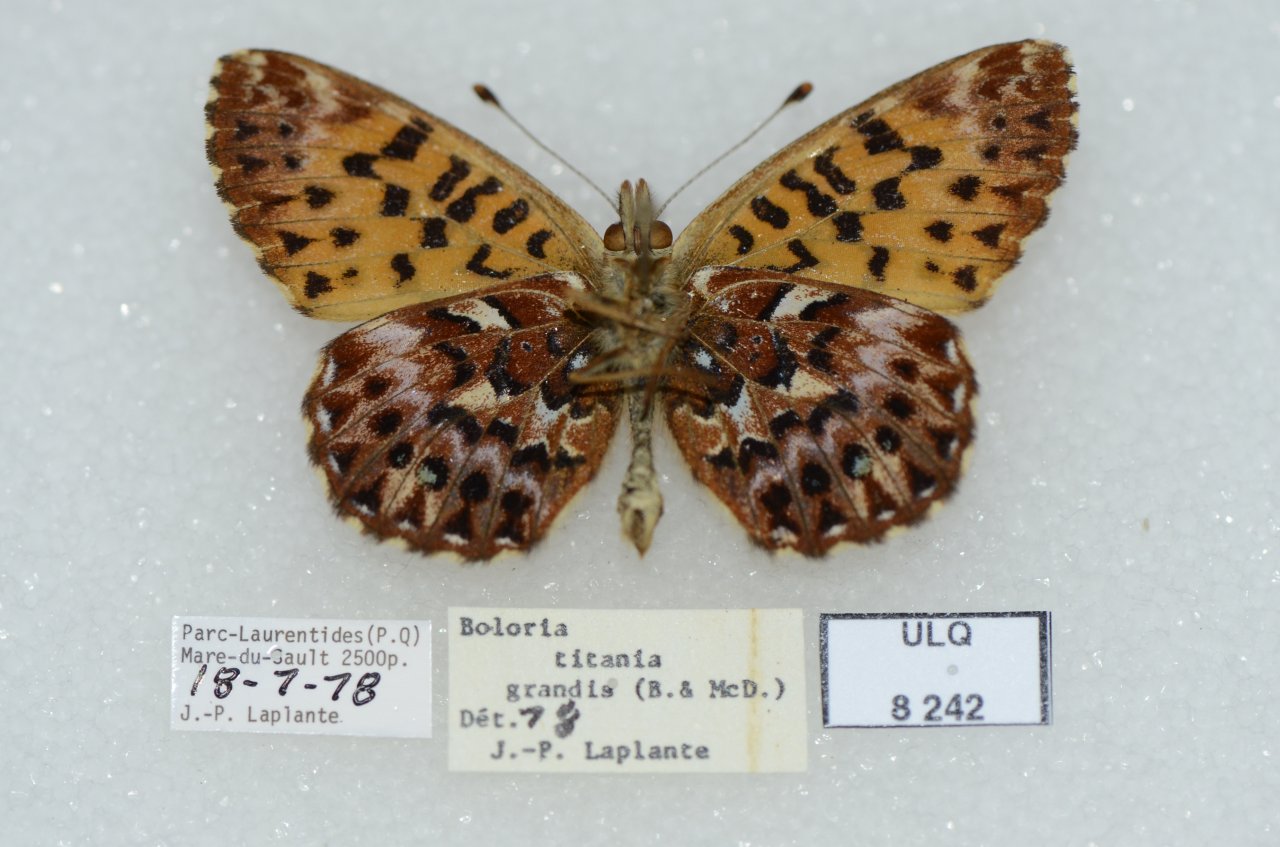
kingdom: Animalia
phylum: Arthropoda
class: Insecta
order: Lepidoptera
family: Nymphalidae
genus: Boloria
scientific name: Boloria chariclea
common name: Arctic Fritillary
